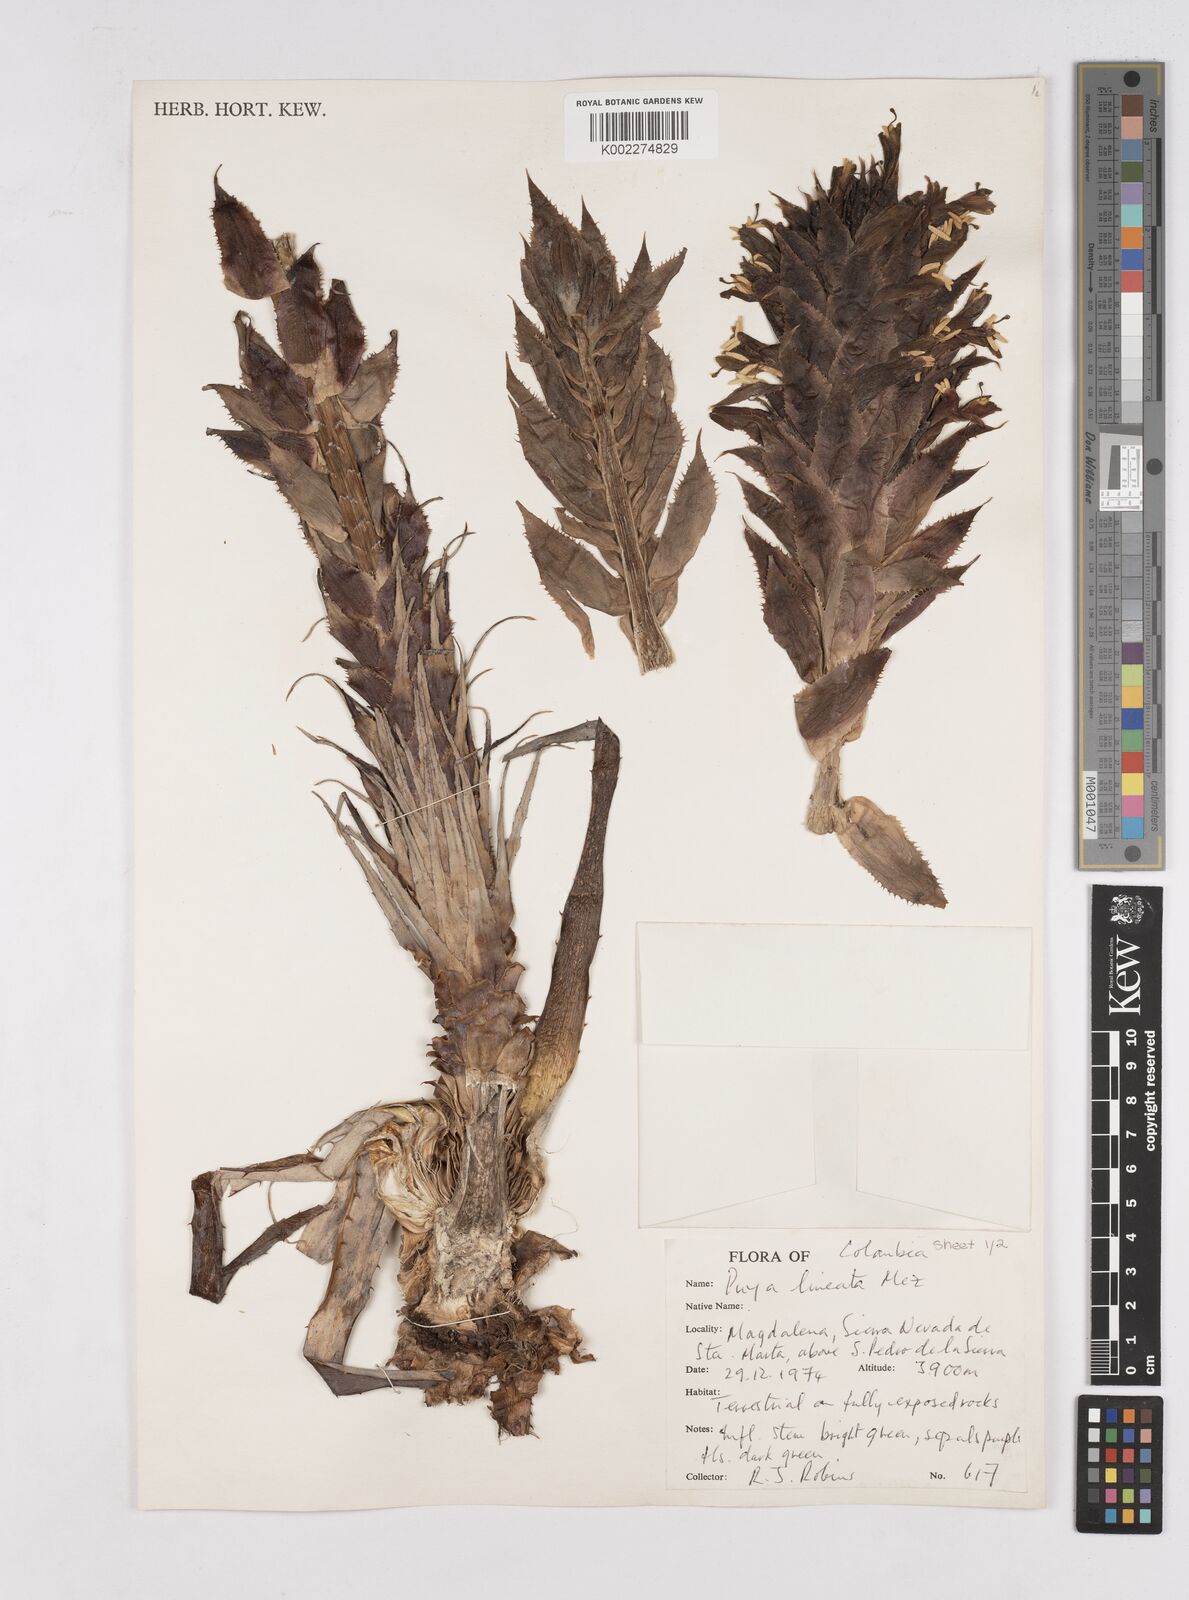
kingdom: Plantae
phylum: Tracheophyta
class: Liliopsida
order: Poales
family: Bromeliaceae
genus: Puya
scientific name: Puya lineata
